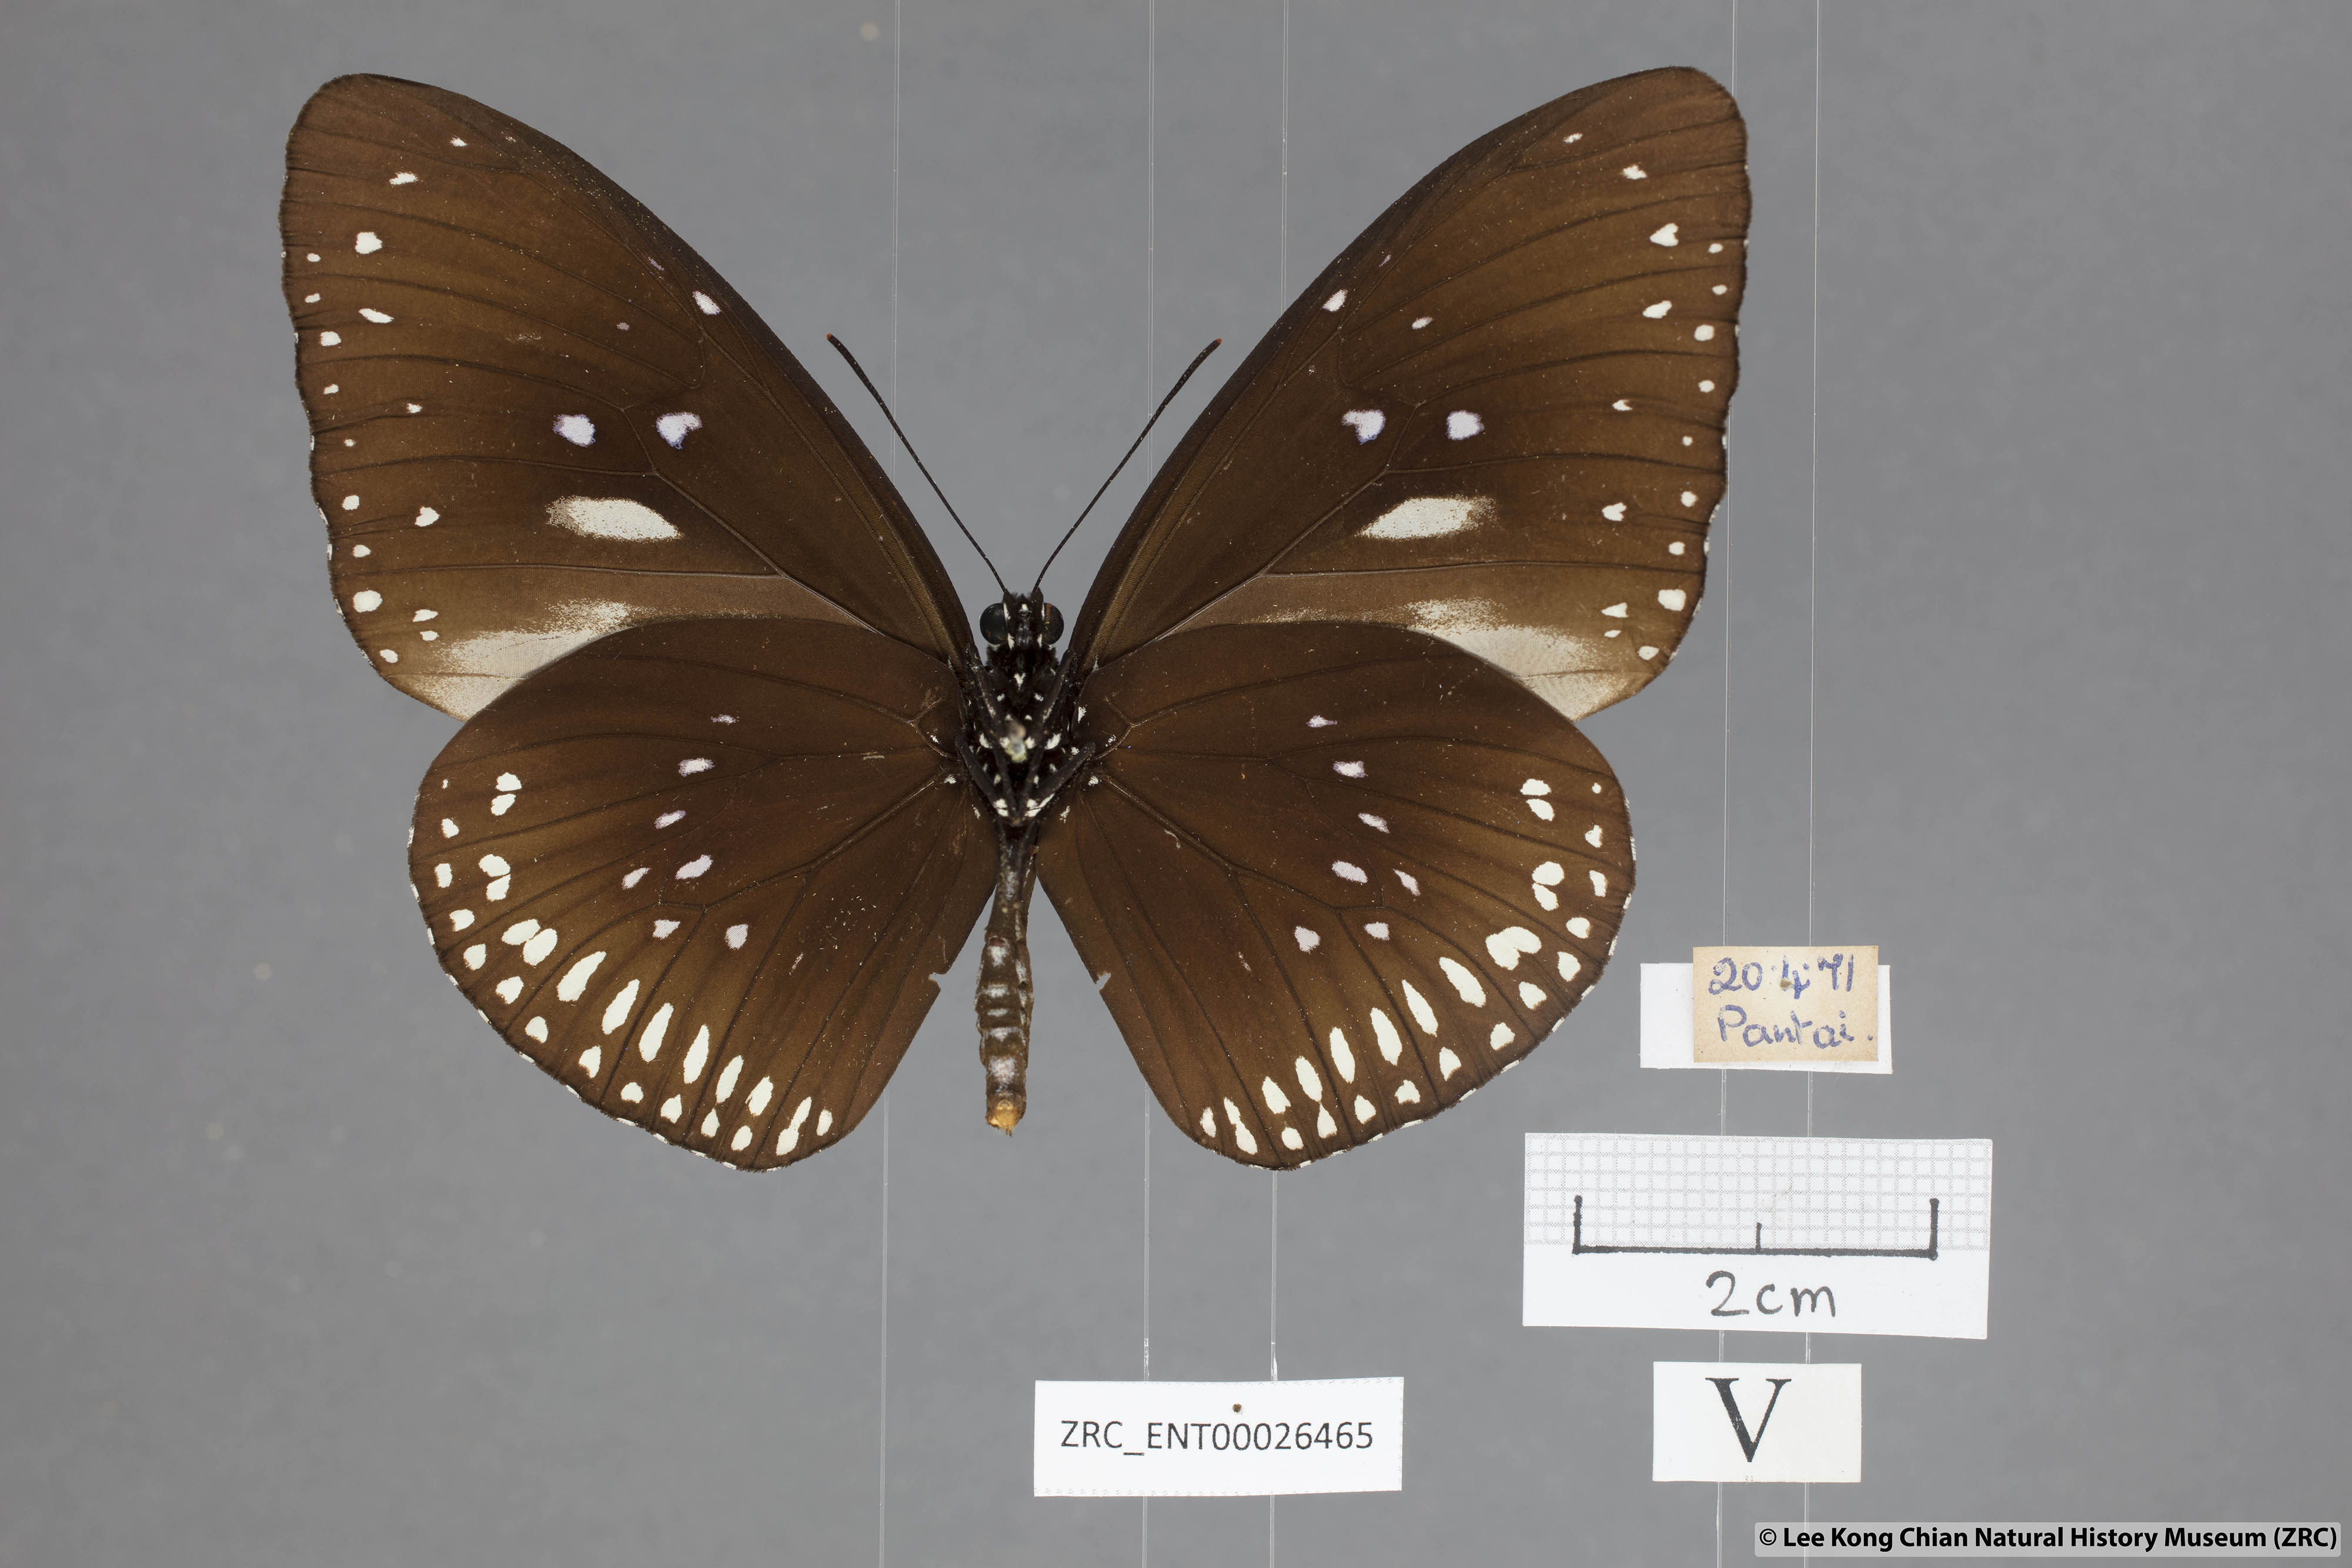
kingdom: Animalia
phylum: Arthropoda
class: Insecta
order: Lepidoptera
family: Nymphalidae
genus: Euploea
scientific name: Euploea midamus
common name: Blue-spotted crow butterfly
